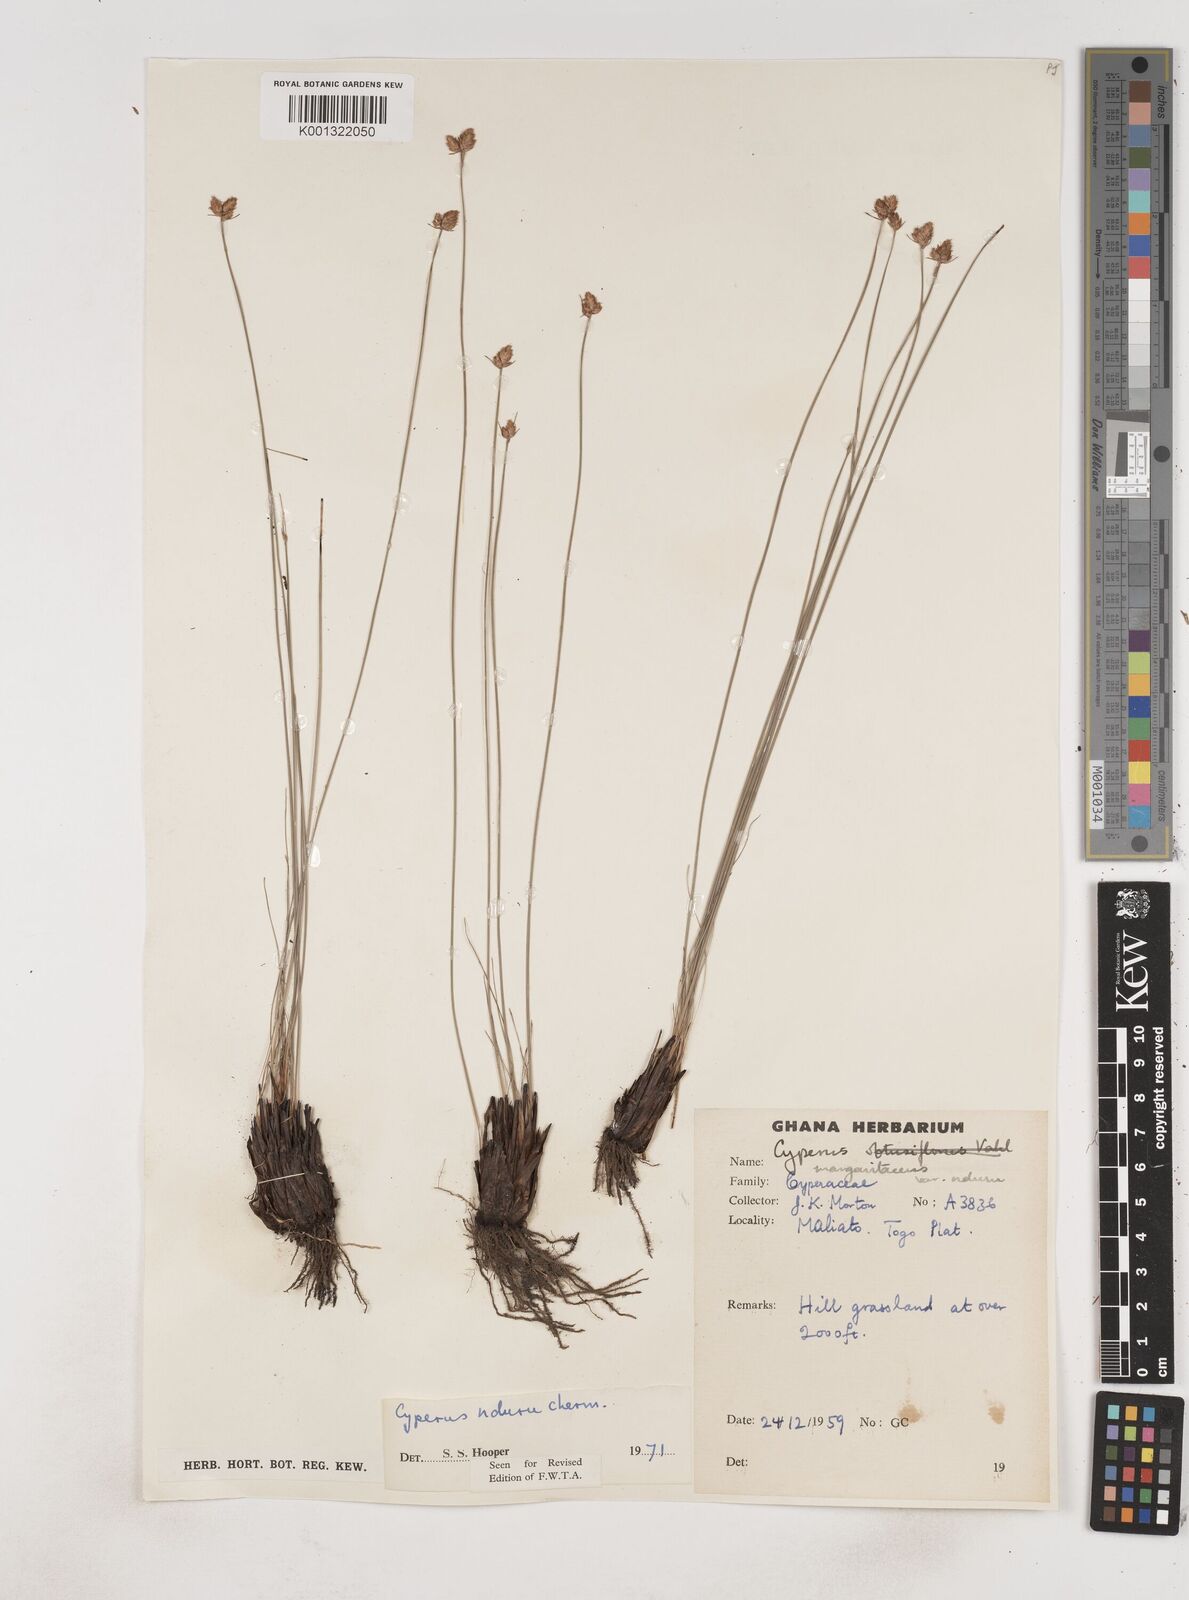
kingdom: Plantae
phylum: Tracheophyta
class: Liliopsida
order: Poales
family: Cyperaceae
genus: Cyperus
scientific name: Cyperus nduru
